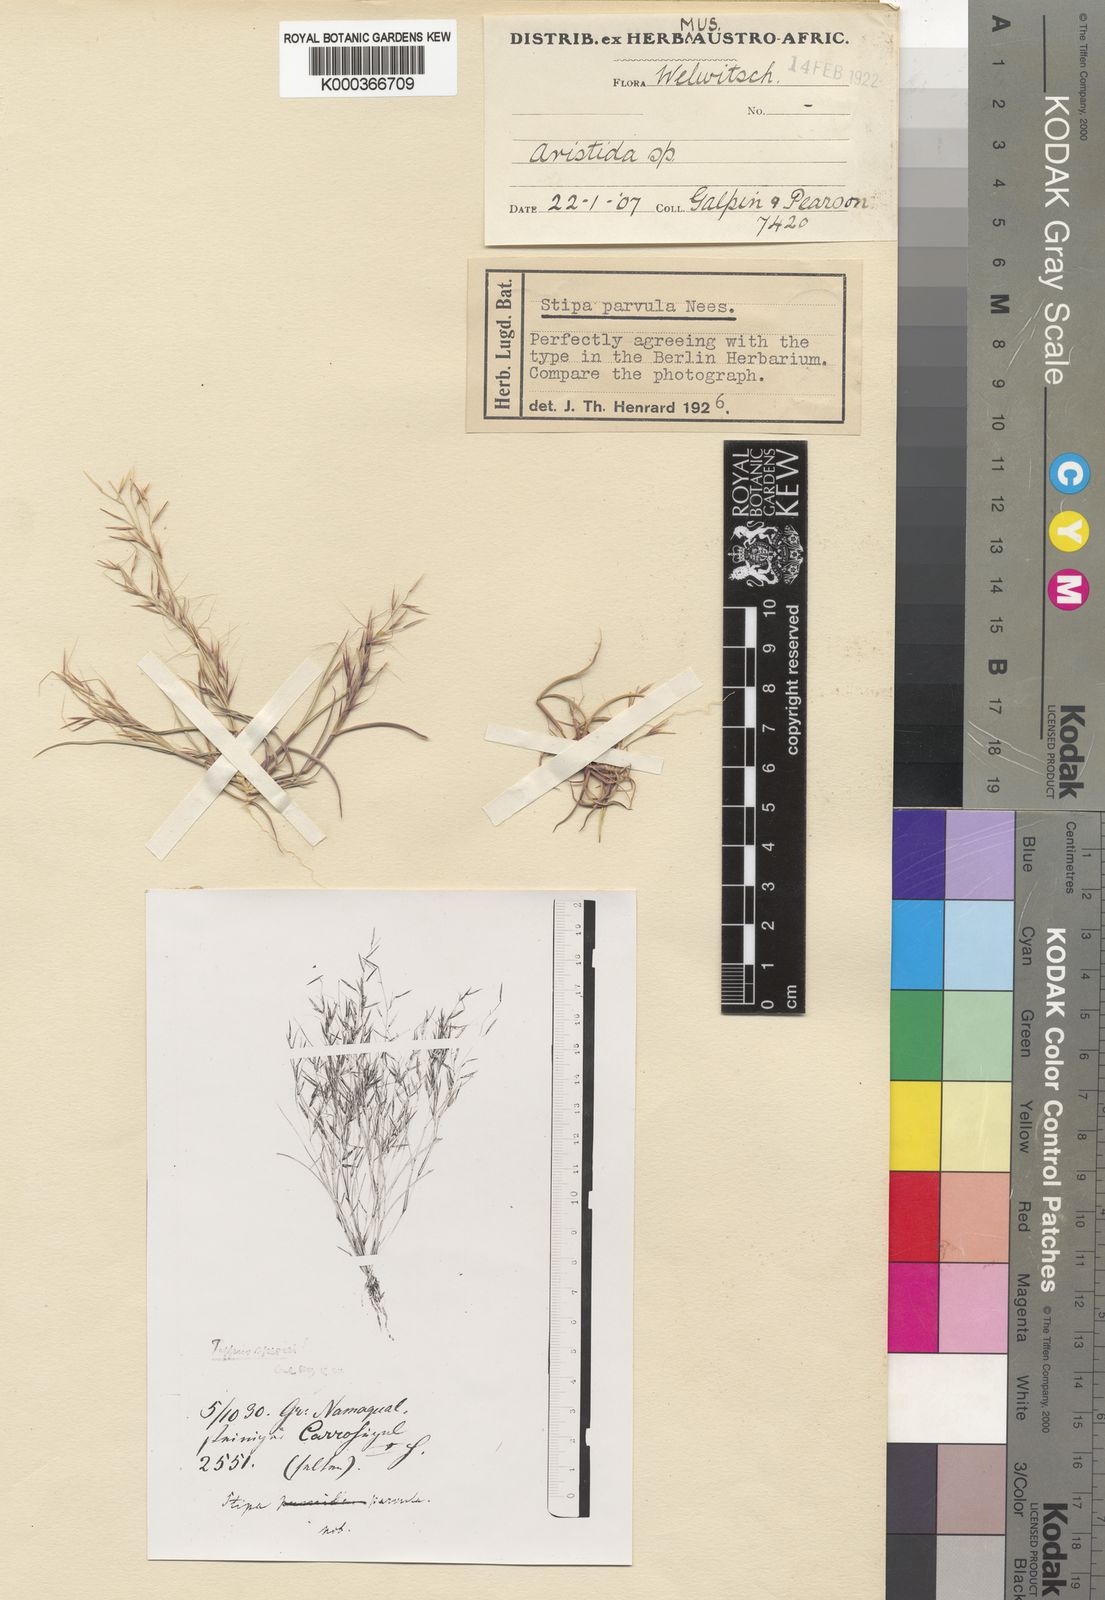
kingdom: Plantae
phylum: Tracheophyta
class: Liliopsida
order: Poales
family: Poaceae
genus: Aristida
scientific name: Aristida parvula
